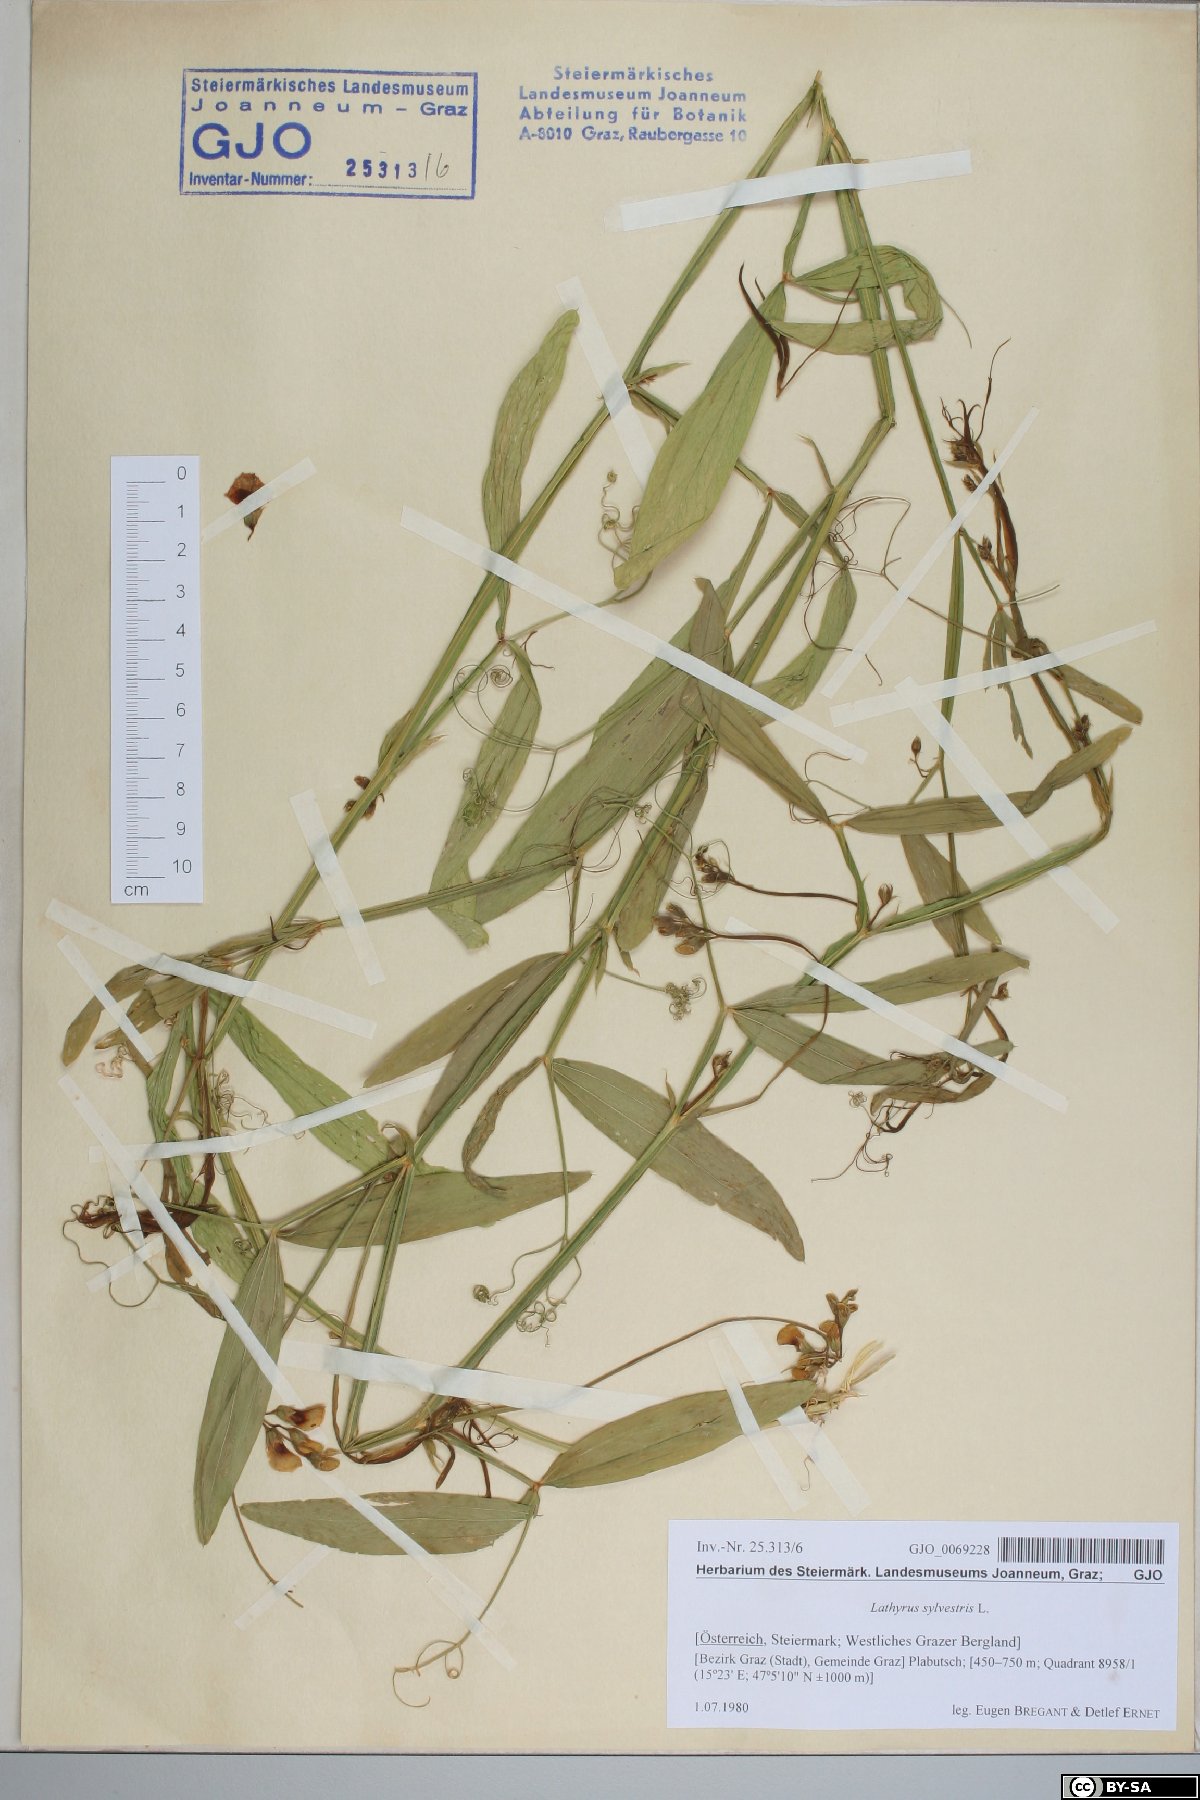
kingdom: Plantae
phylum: Tracheophyta
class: Magnoliopsida
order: Fabales
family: Fabaceae
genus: Lathyrus
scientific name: Lathyrus sylvestris
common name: Flat pea
